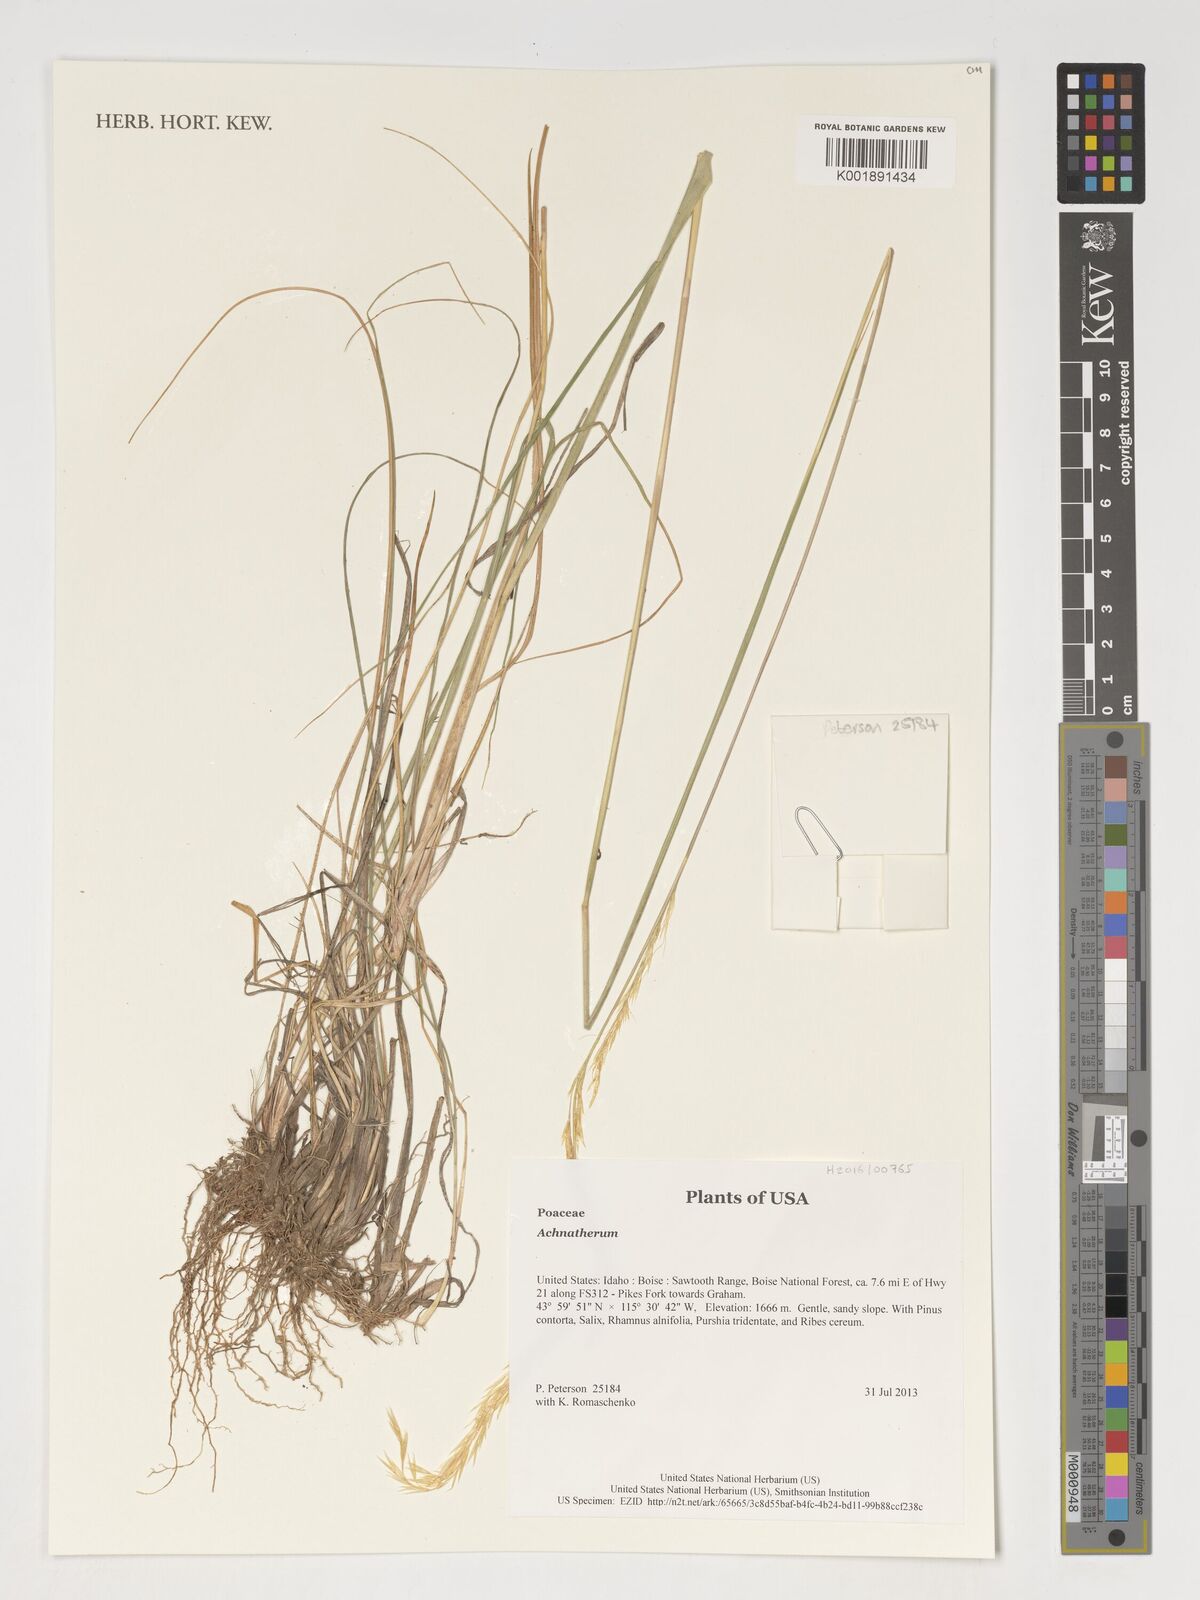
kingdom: Plantae
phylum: Tracheophyta
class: Liliopsida
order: Poales
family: Poaceae
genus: Achnatherum
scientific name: Achnatherum
